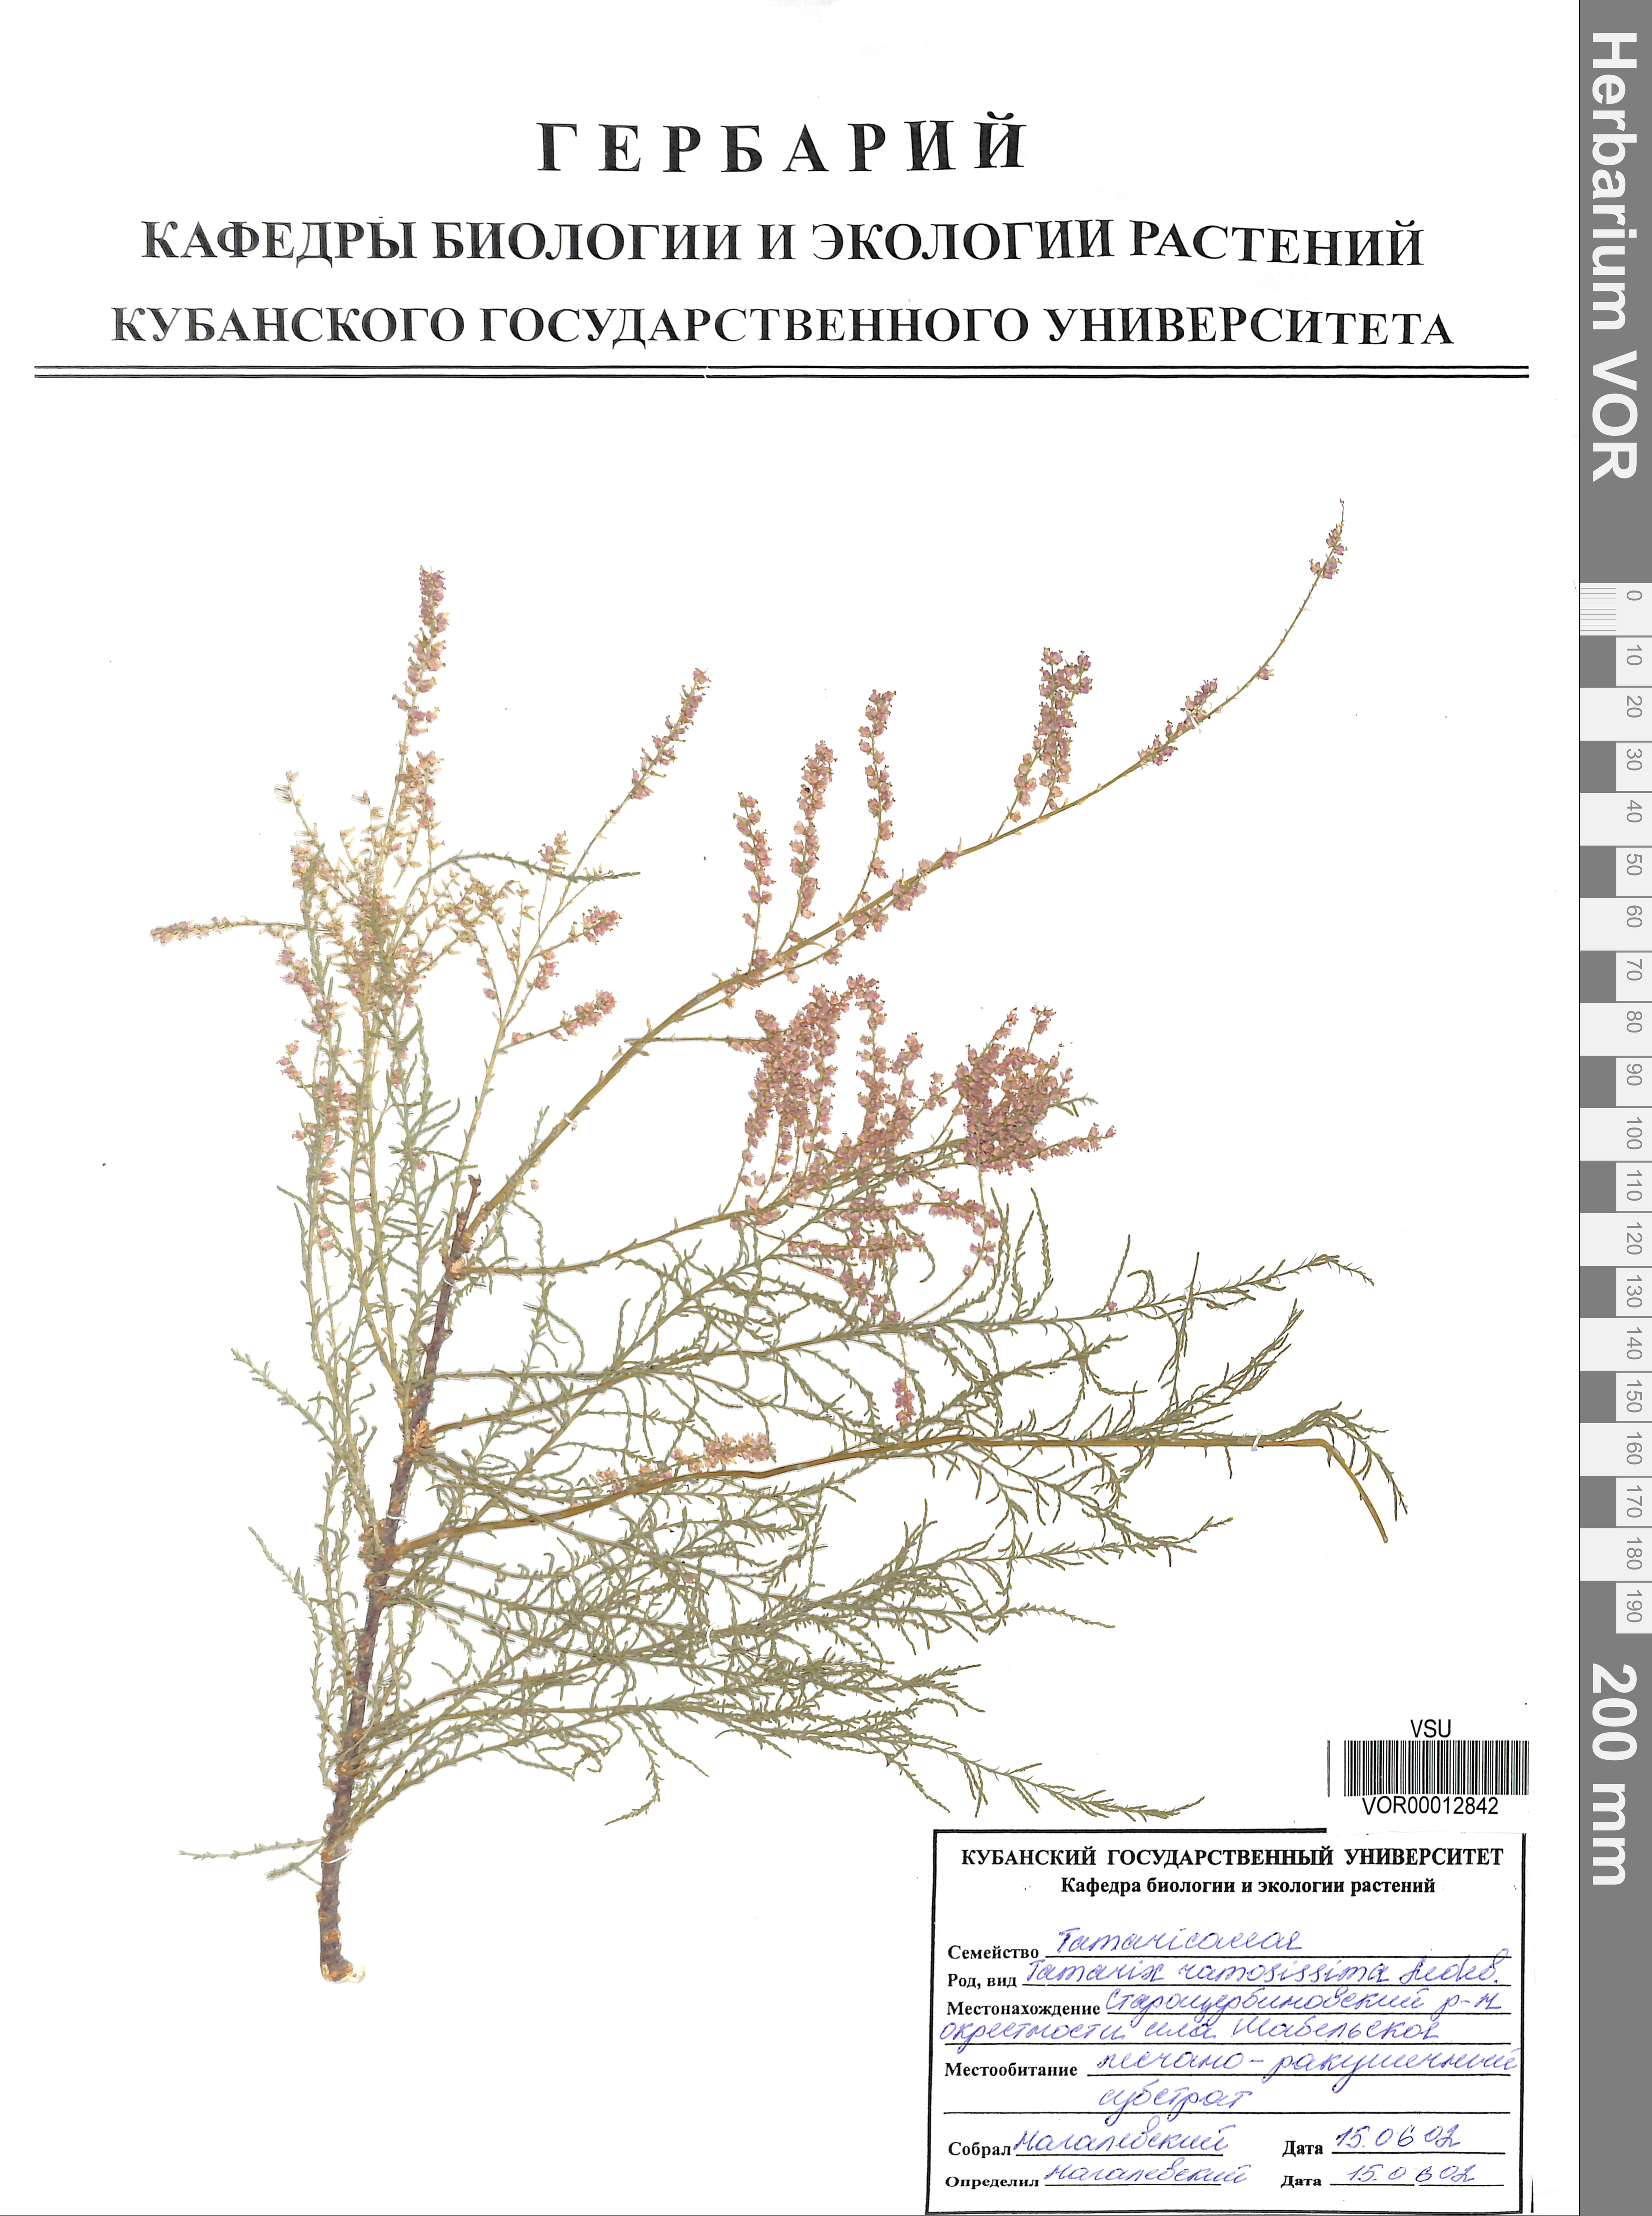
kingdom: Plantae
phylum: Tracheophyta
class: Magnoliopsida
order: Caryophyllales
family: Tamaricaceae
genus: Tamarix
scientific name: Tamarix ramosissima
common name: Pink tamarisk
